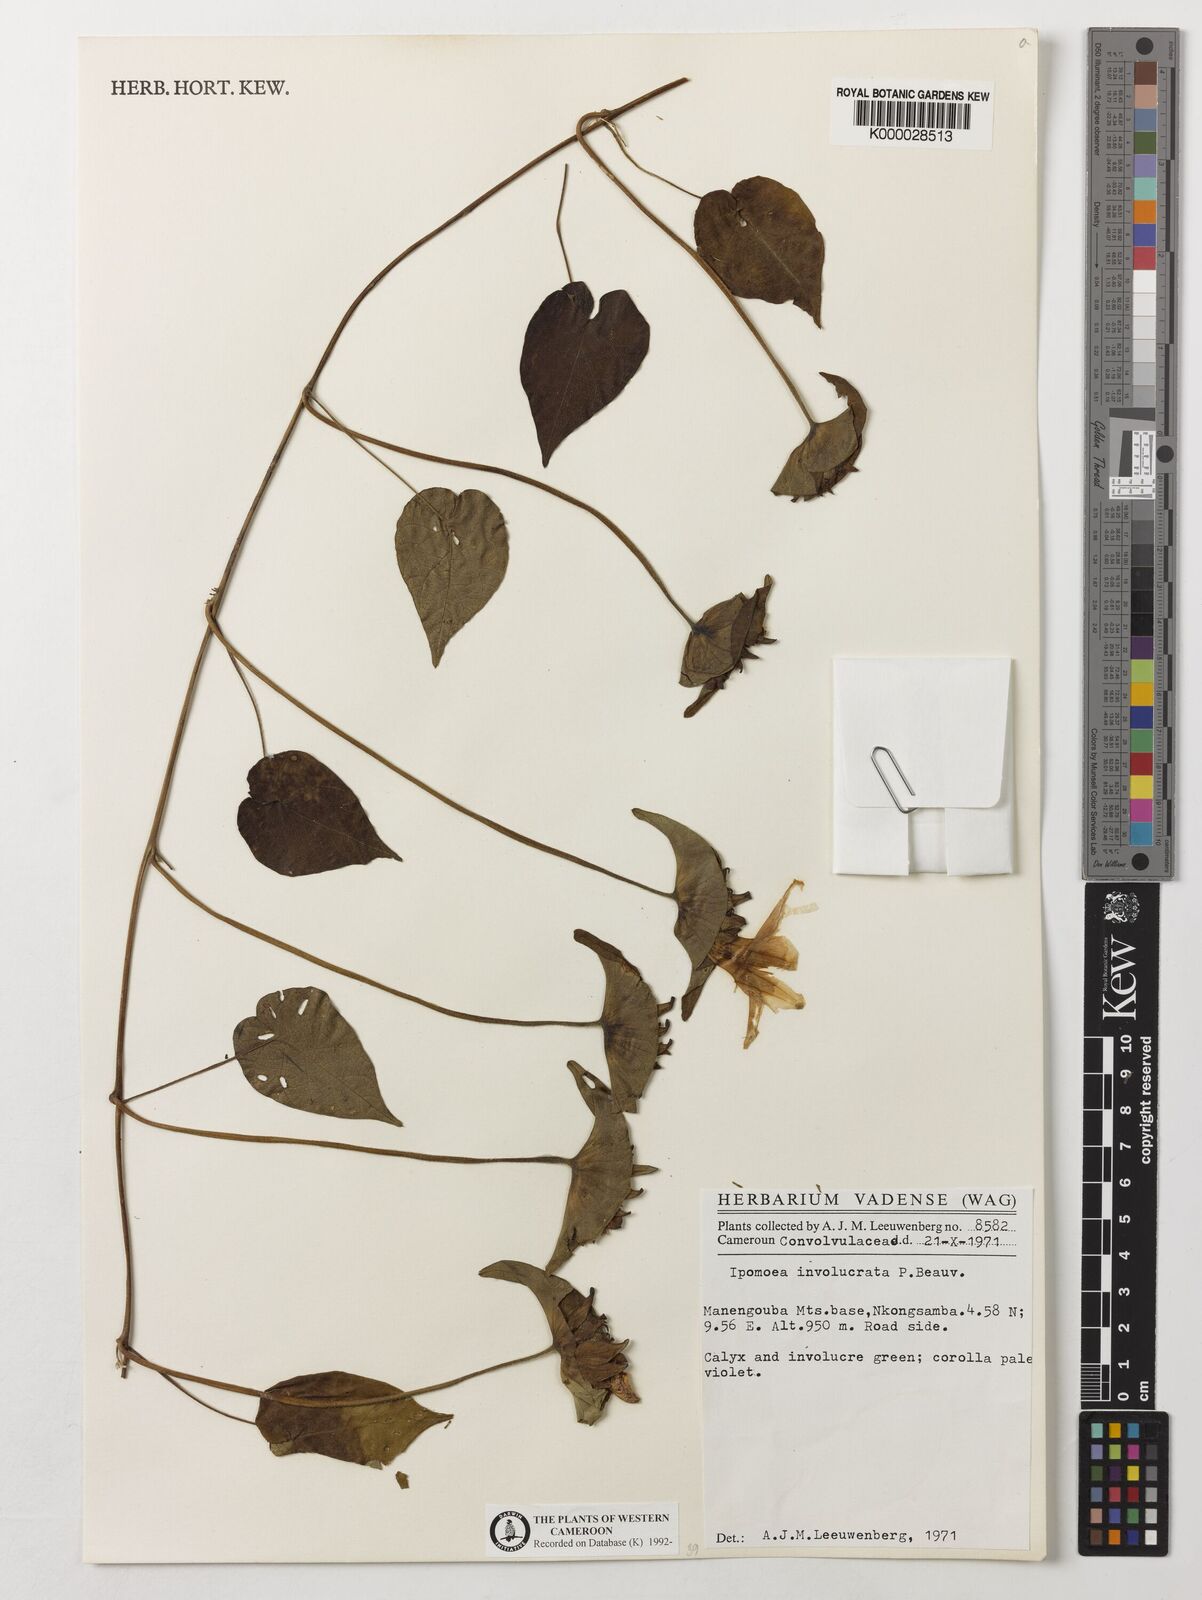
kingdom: Plantae
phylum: Tracheophyta
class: Magnoliopsida
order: Solanales
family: Convolvulaceae
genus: Ipomoea
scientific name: Ipomoea involucrata
